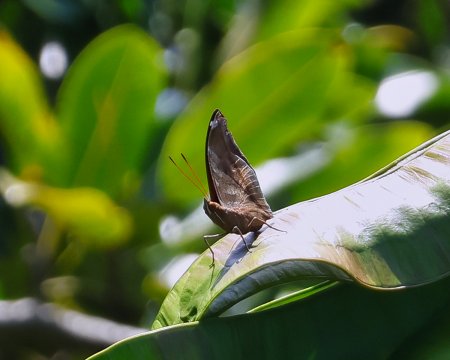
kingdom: Animalia
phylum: Arthropoda
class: Insecta
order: Lepidoptera
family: Nymphalidae
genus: Historis
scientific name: Historis odius
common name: Orion Cecropian
